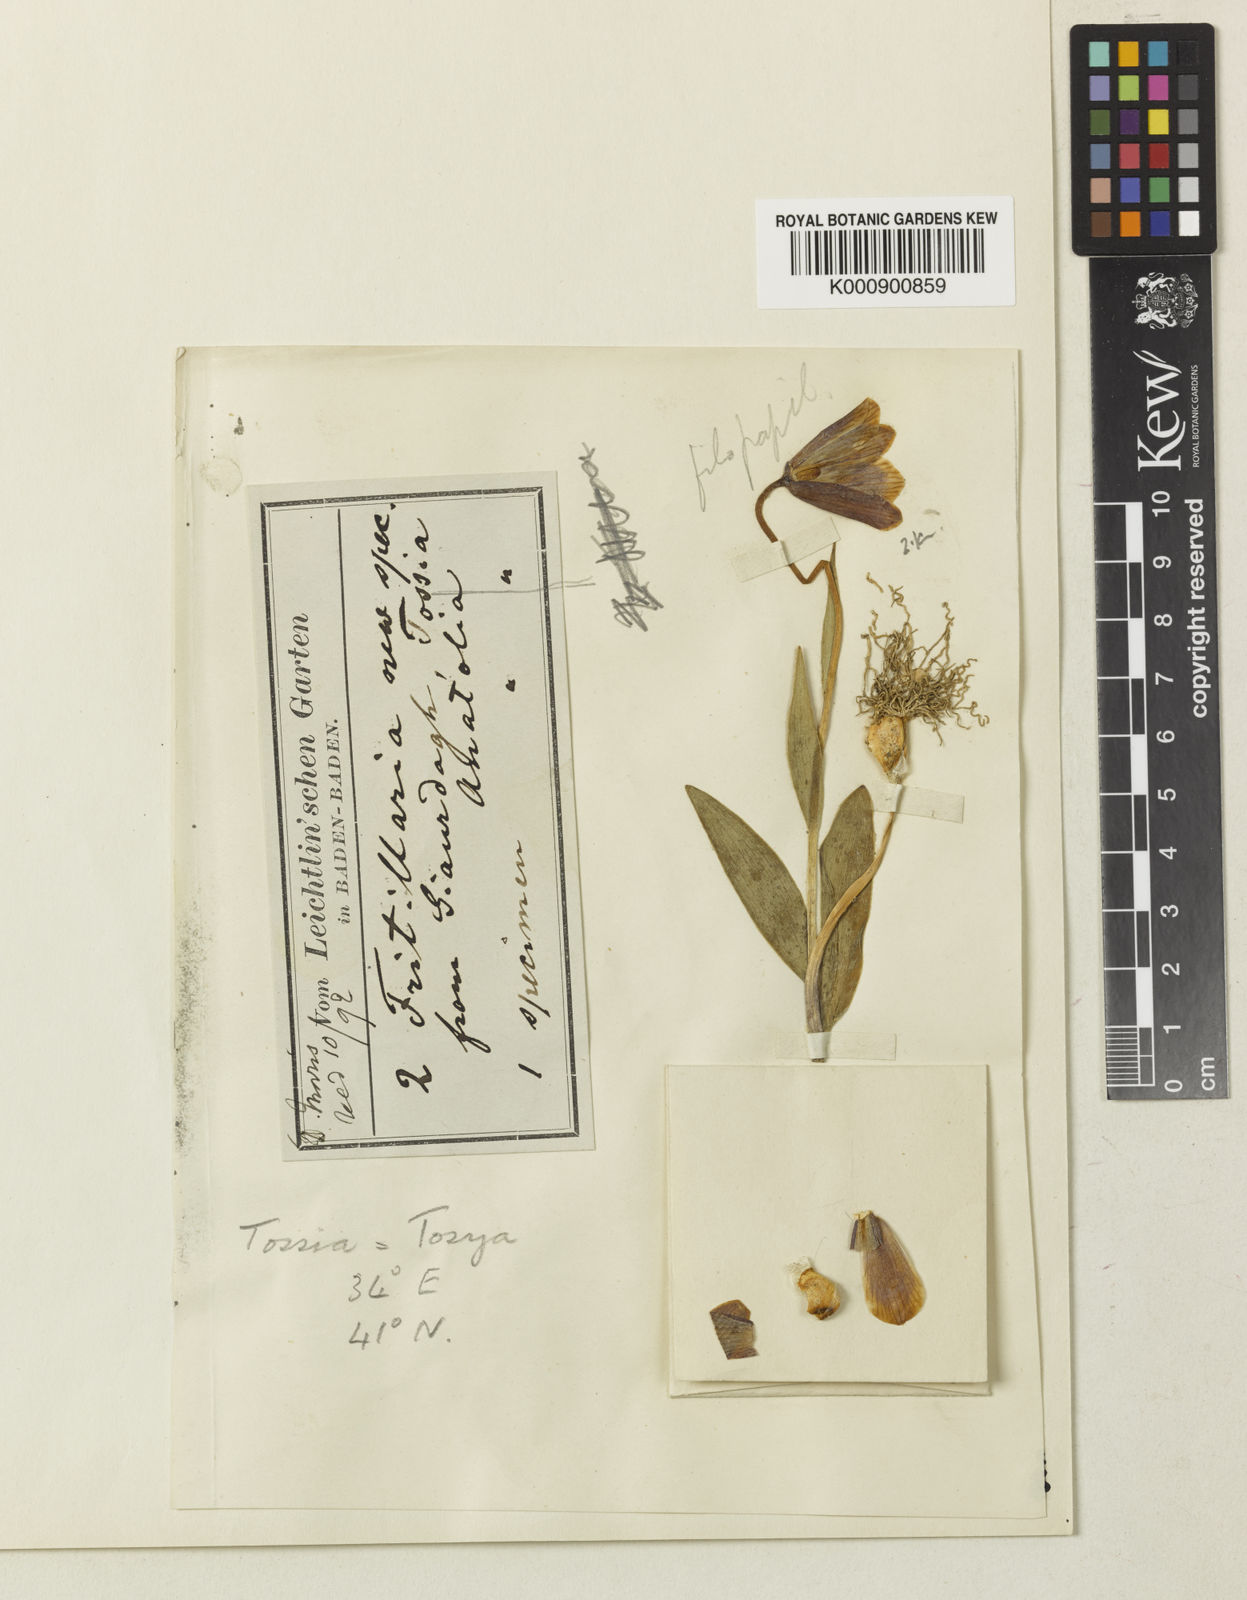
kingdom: Plantae
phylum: Tracheophyta
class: Liliopsida
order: Liliales
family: Liliaceae
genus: Fritillaria
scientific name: Fritillaria armena
